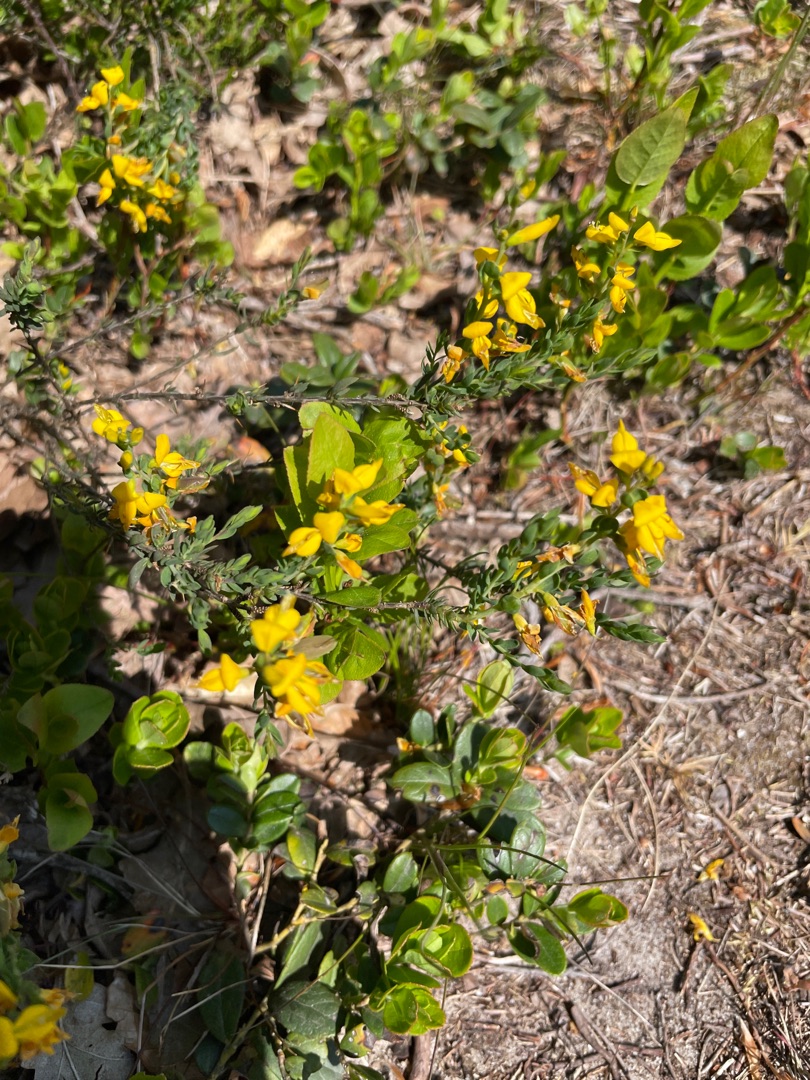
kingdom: Plantae
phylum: Tracheophyta
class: Magnoliopsida
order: Fabales
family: Fabaceae
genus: Genista
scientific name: Genista anglica
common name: Engelsk visse
